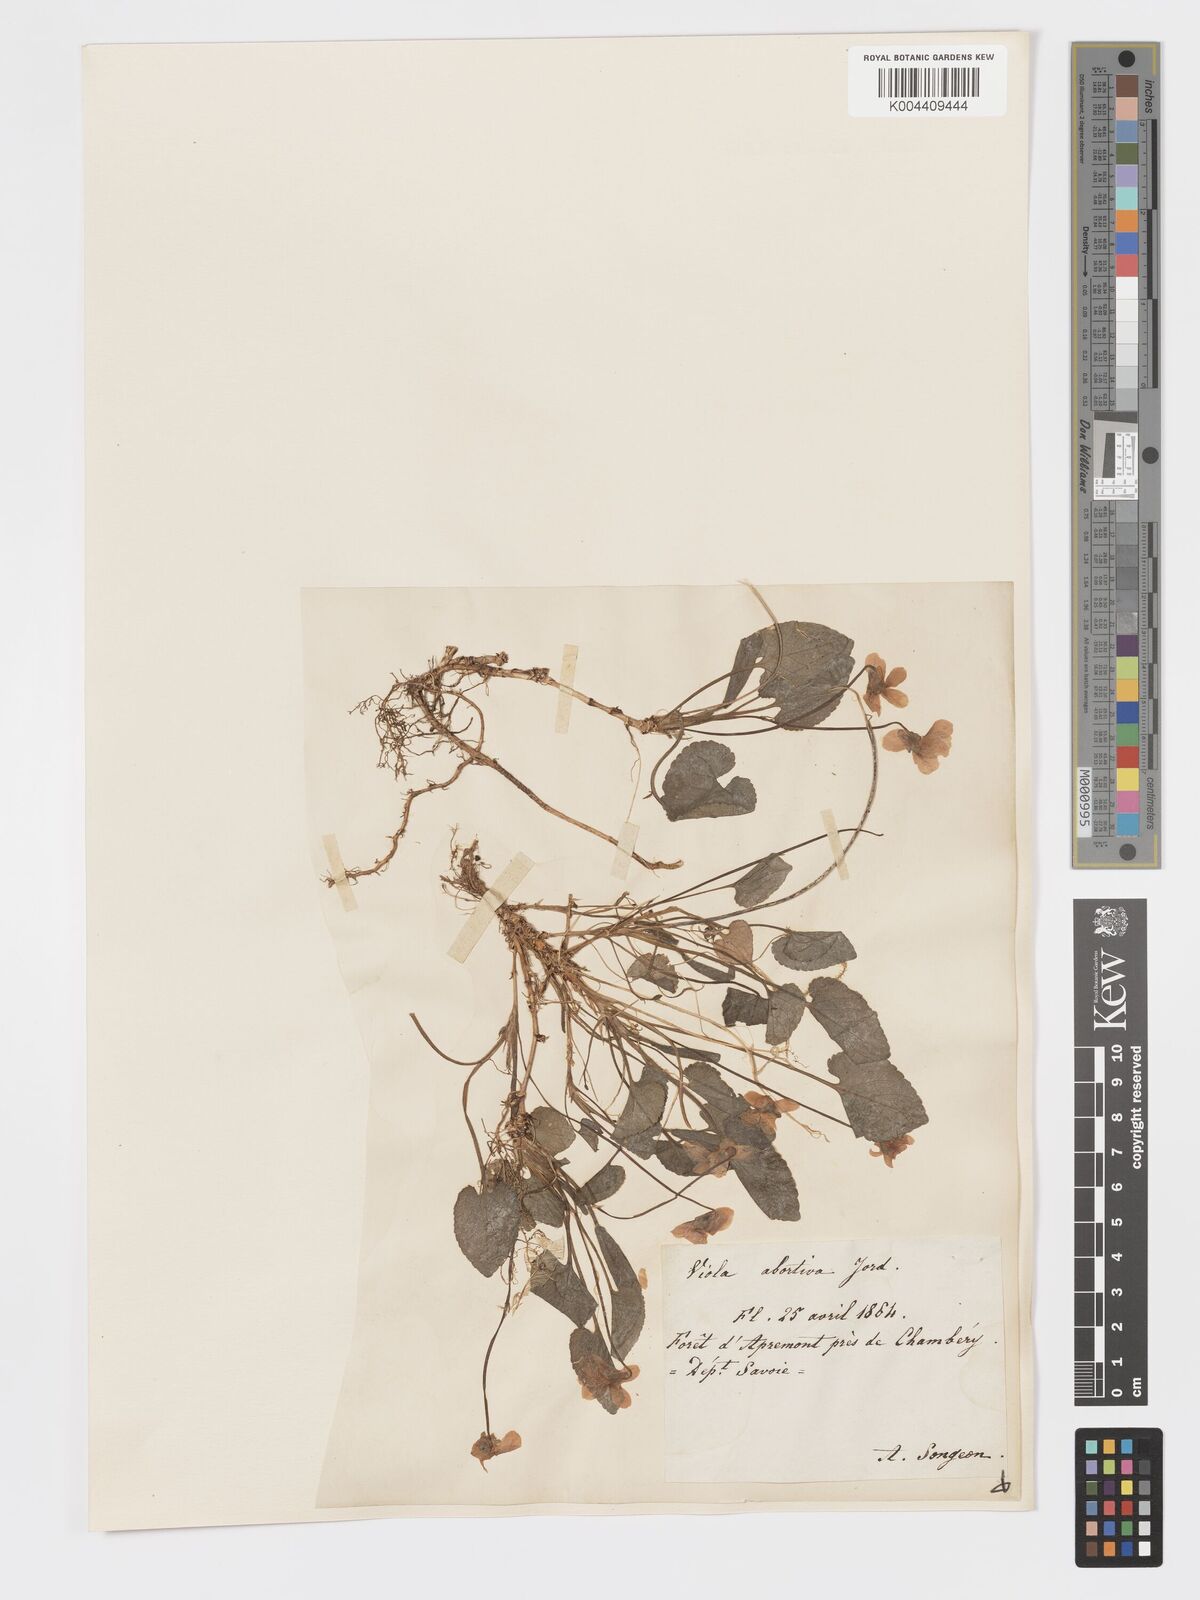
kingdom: Plantae
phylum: Tracheophyta
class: Magnoliopsida
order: Malpighiales
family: Violaceae
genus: Viola
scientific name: Viola alba
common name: White violet
